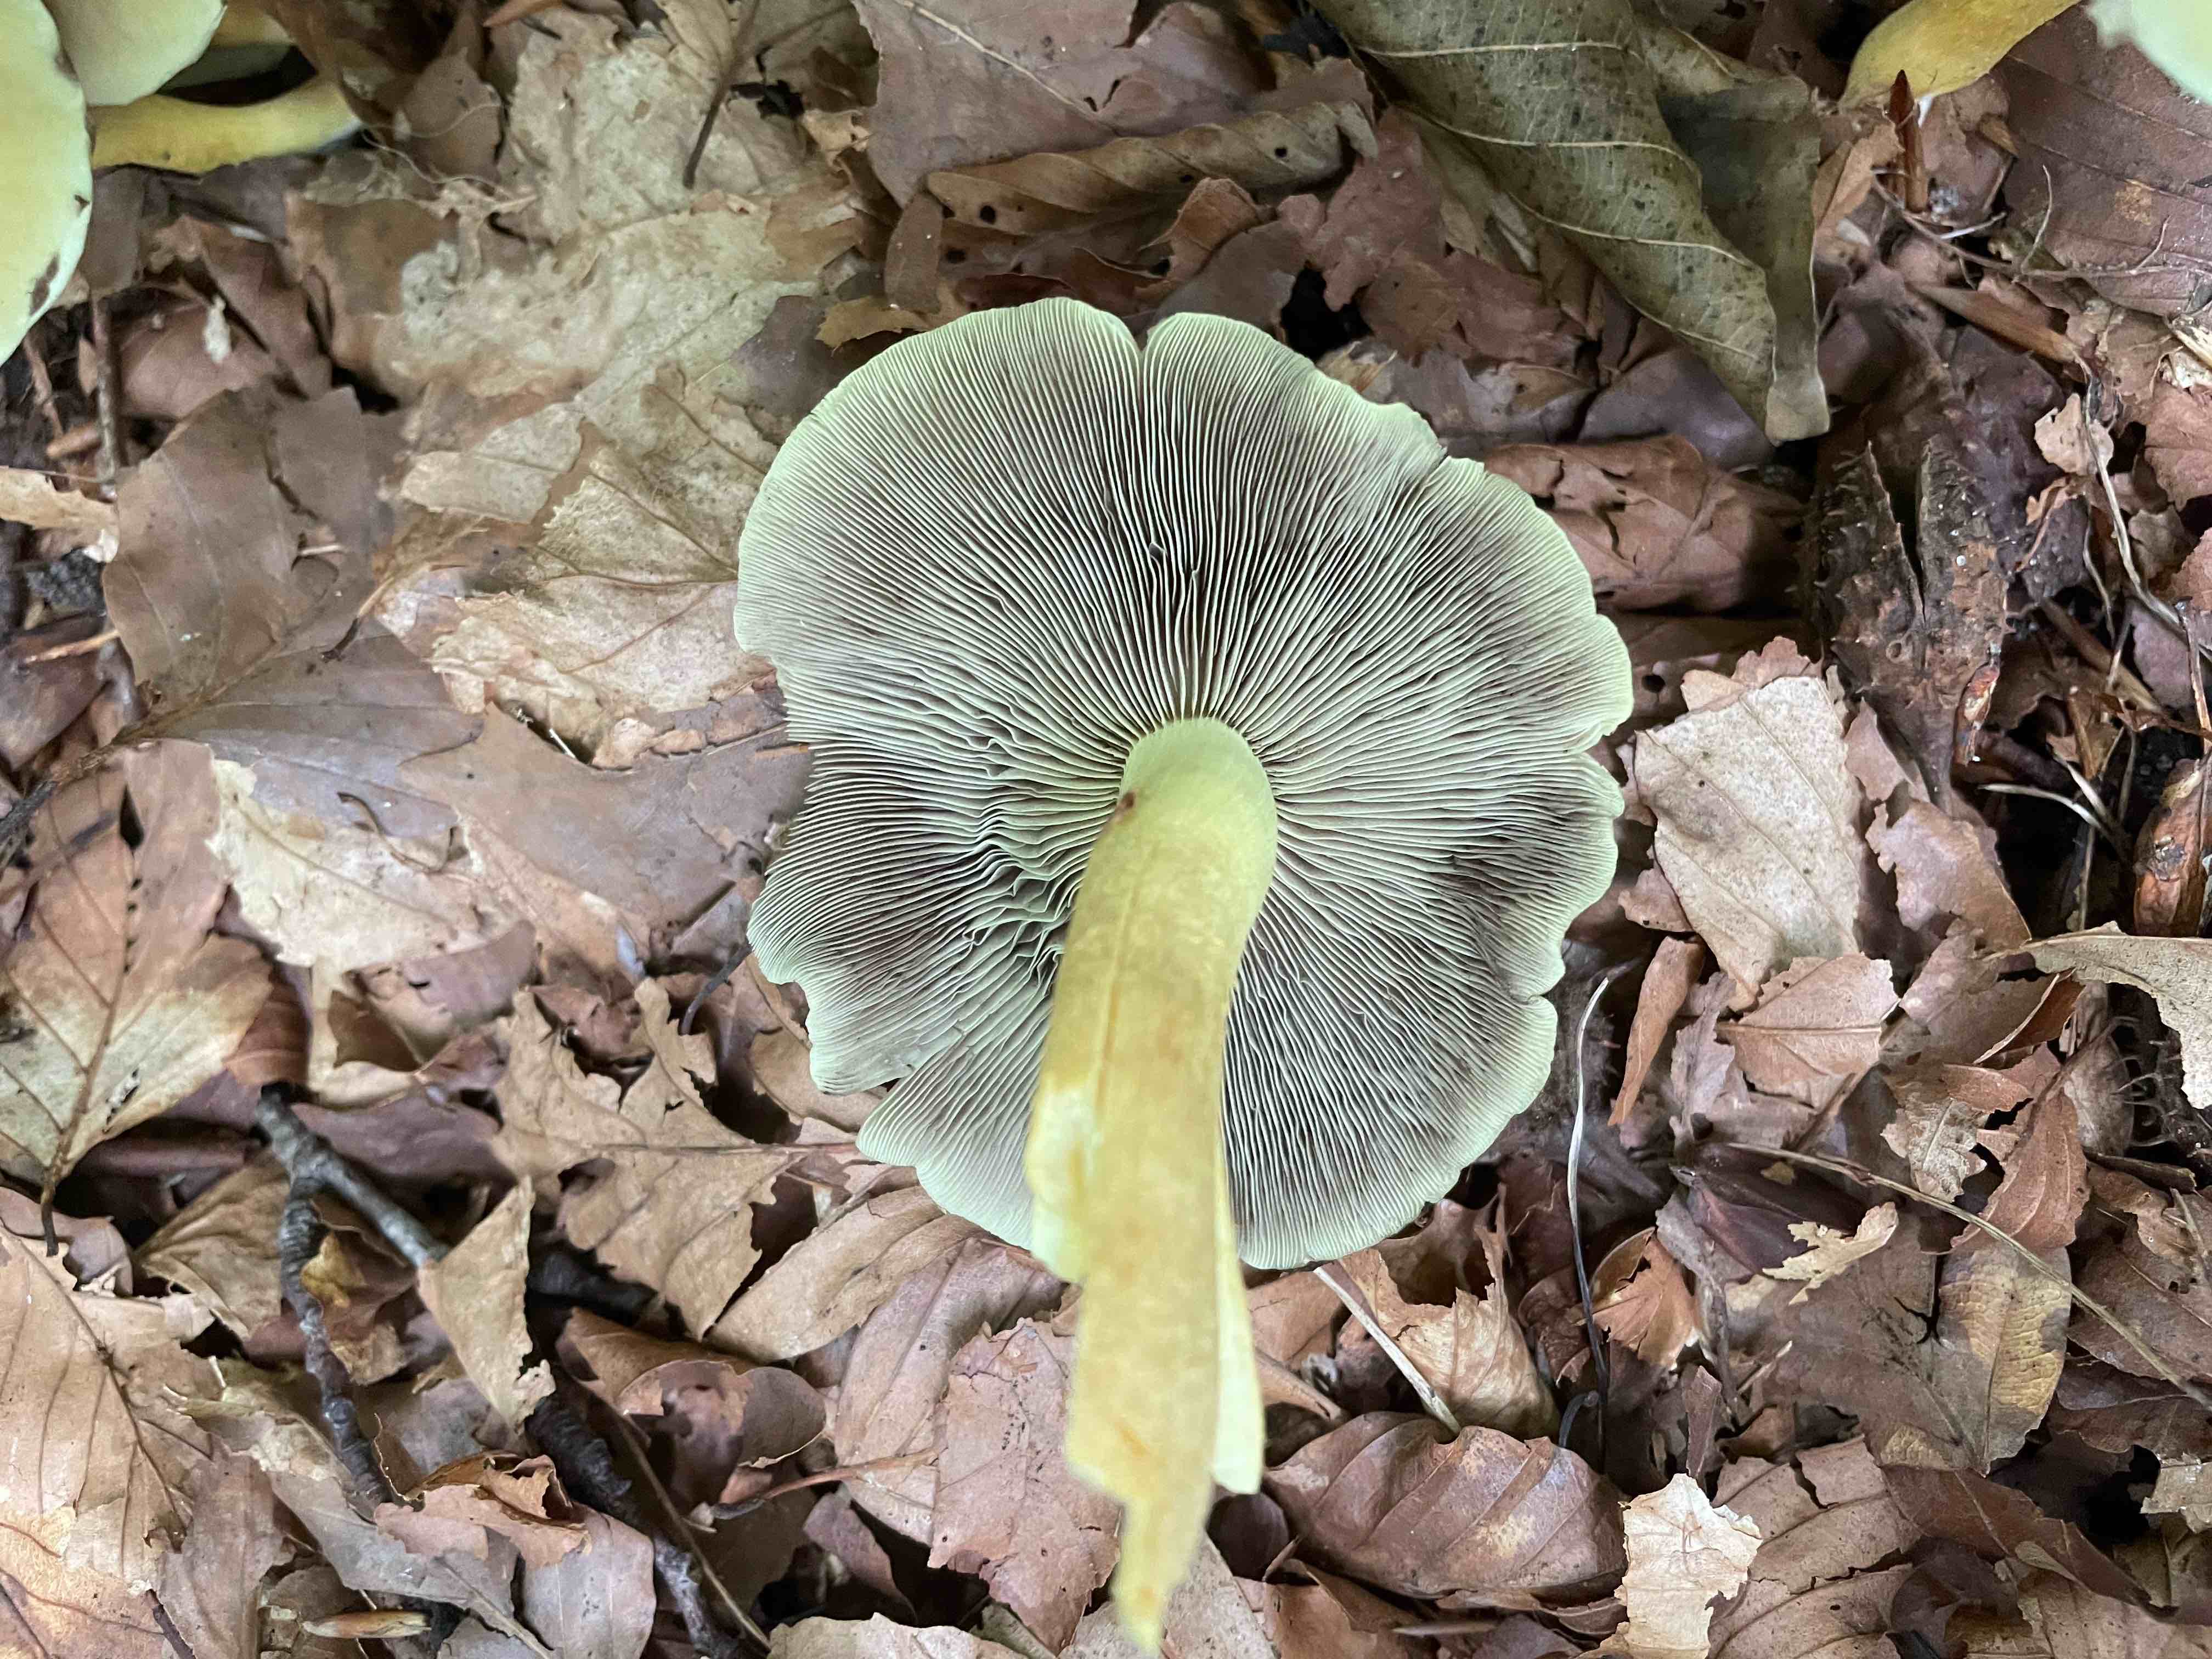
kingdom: Fungi
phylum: Basidiomycota
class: Agaricomycetes
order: Agaricales
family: Strophariaceae
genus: Hypholoma
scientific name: Hypholoma fasciculare
